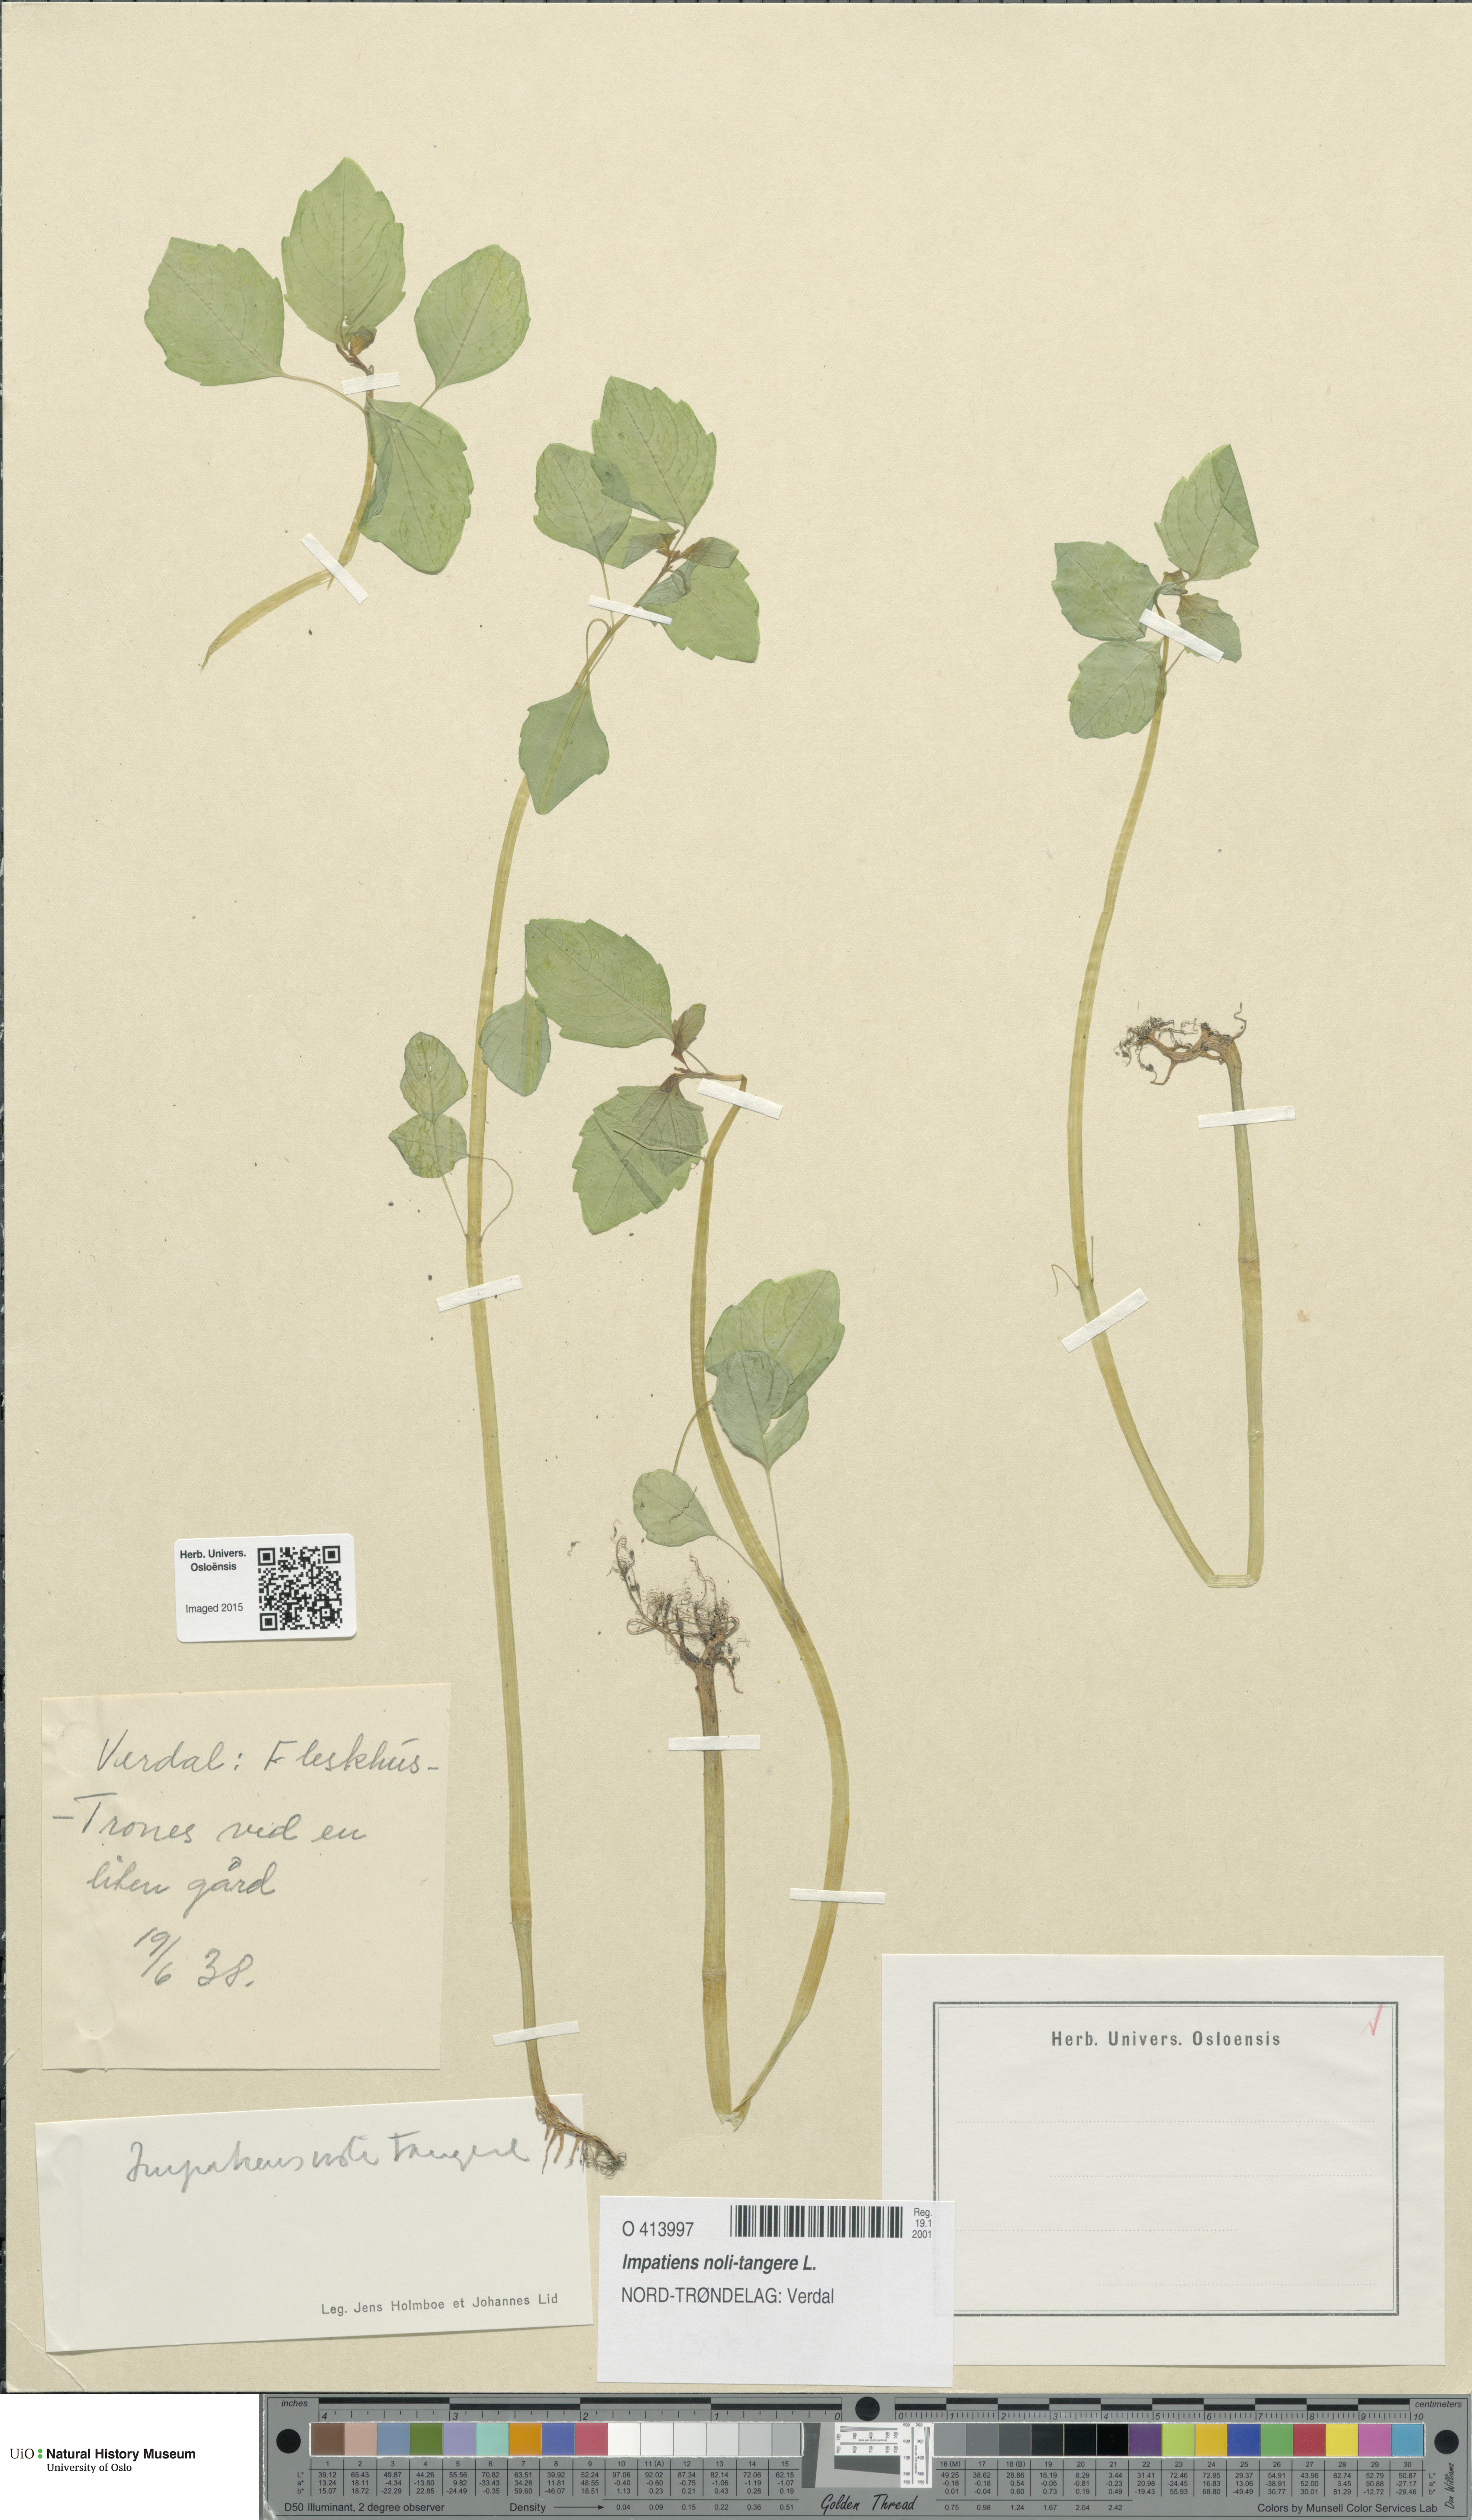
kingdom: Plantae
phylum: Tracheophyta
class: Magnoliopsida
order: Ericales
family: Balsaminaceae
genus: Impatiens
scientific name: Impatiens noli-tangere
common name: Touch-me-not balsam
